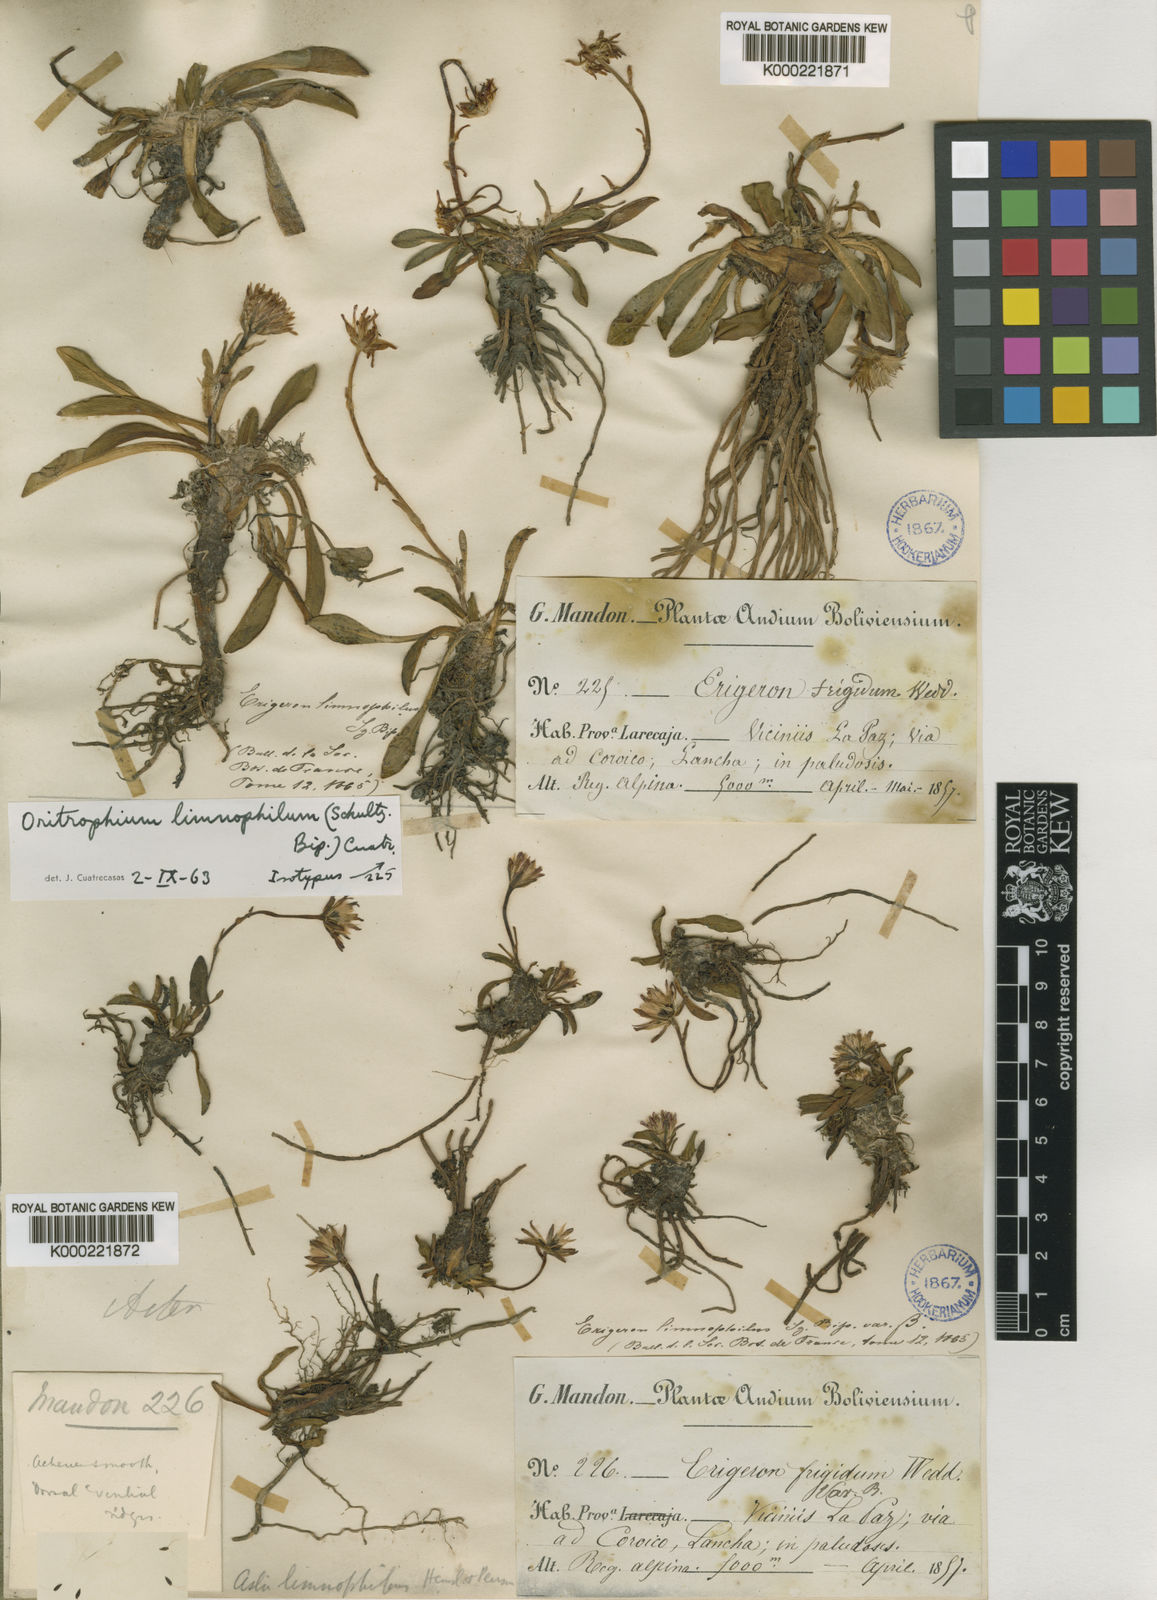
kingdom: Plantae
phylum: Tracheophyta
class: Magnoliopsida
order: Asterales
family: Asteraceae
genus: Oritrophium
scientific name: Oritrophium limnophilum
